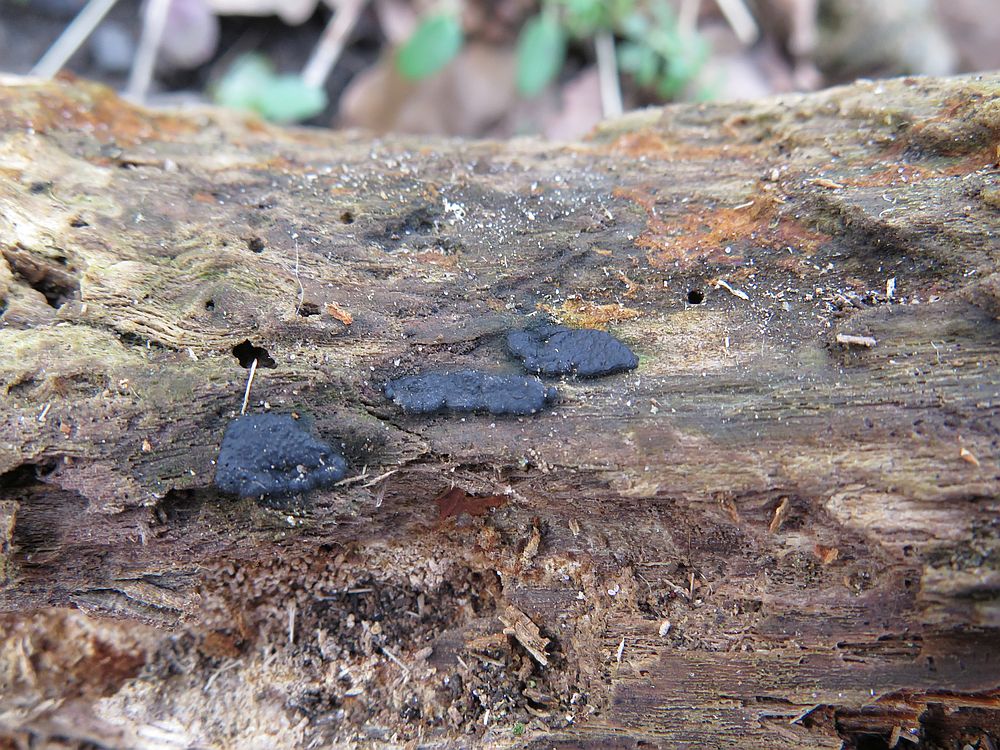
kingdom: Fungi
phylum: Ascomycota
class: Sordariomycetes
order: Xylariales
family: Xylariaceae
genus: Nemania
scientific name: Nemania serpens
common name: almindelig kuldyne
